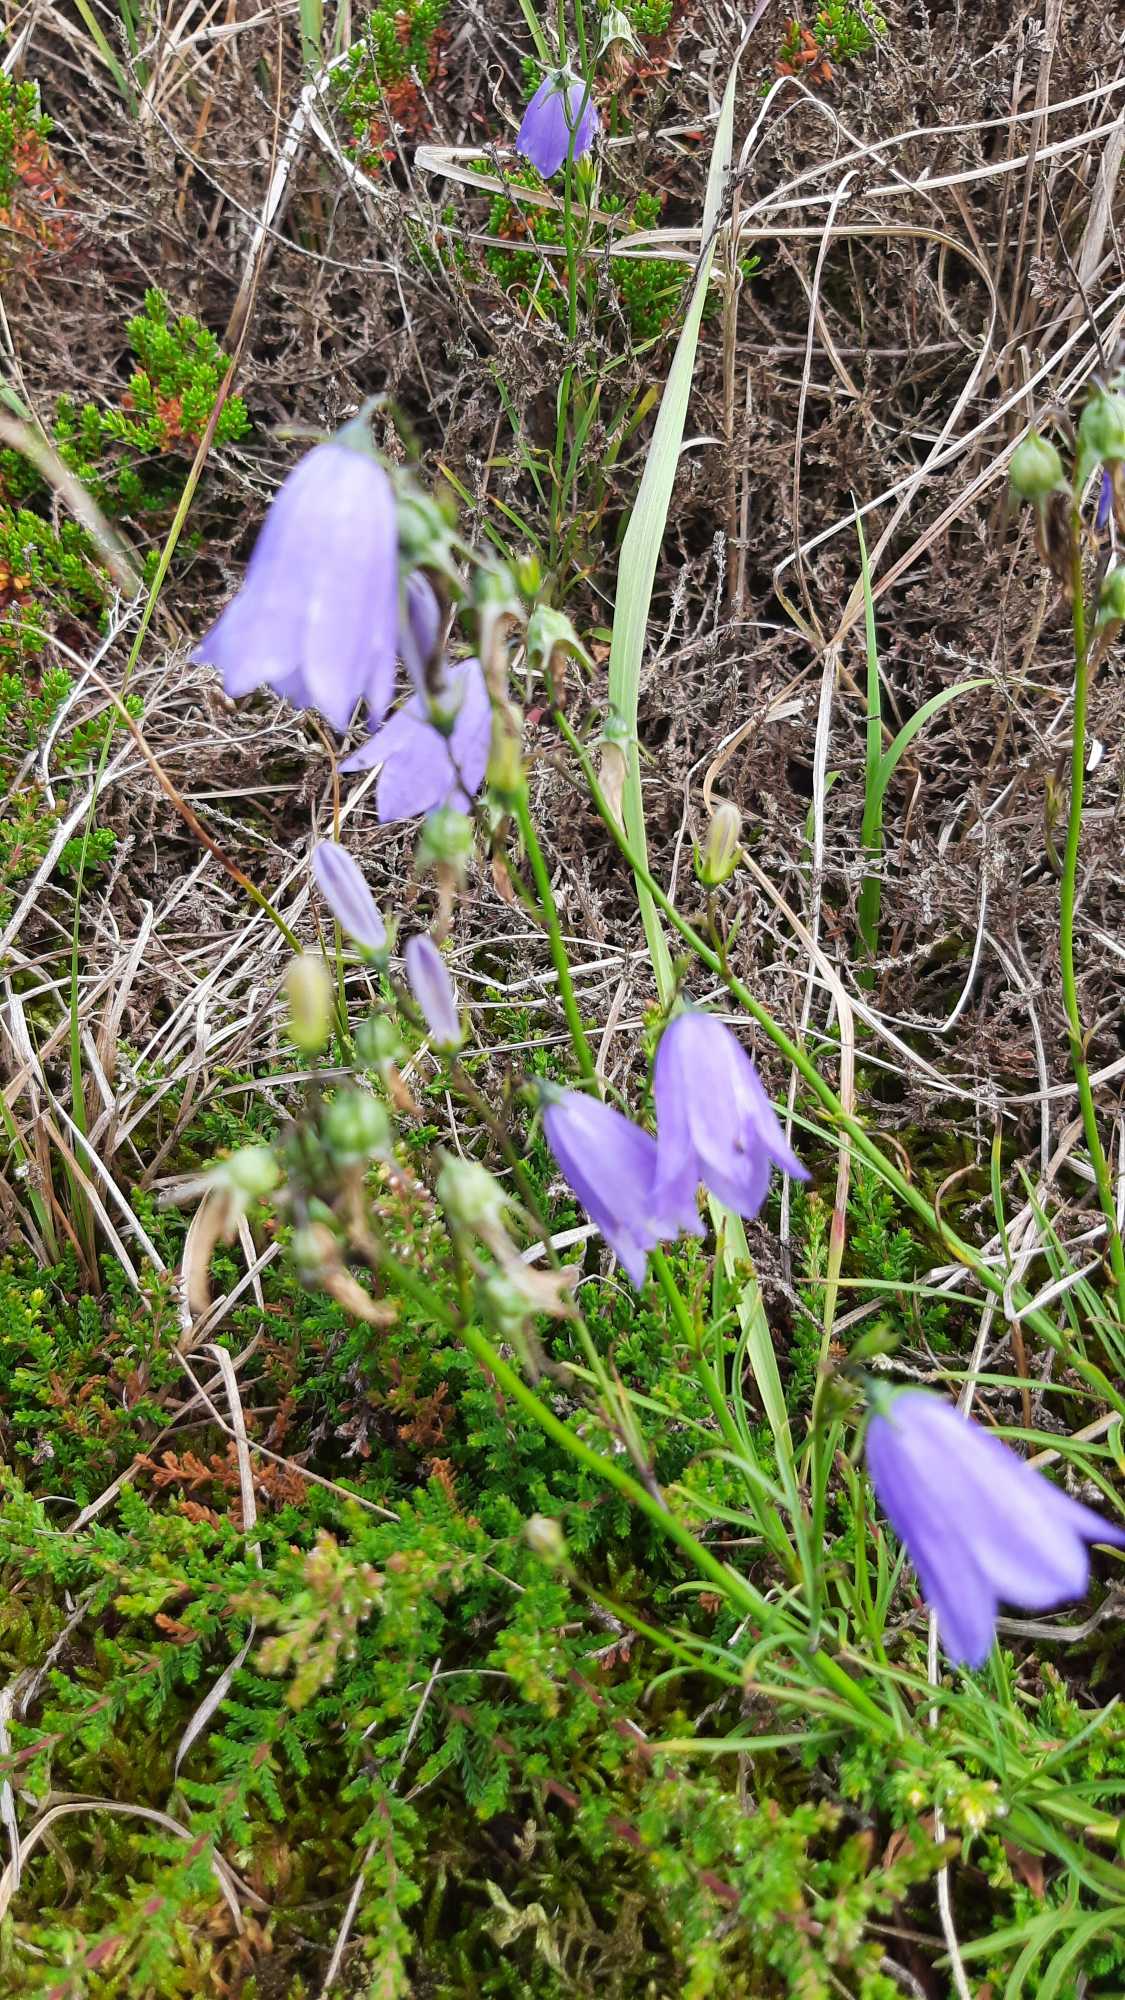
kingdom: Plantae
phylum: Tracheophyta
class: Magnoliopsida
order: Asterales
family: Campanulaceae
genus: Campanula
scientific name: Campanula rotundifolia
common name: Liden klokke
